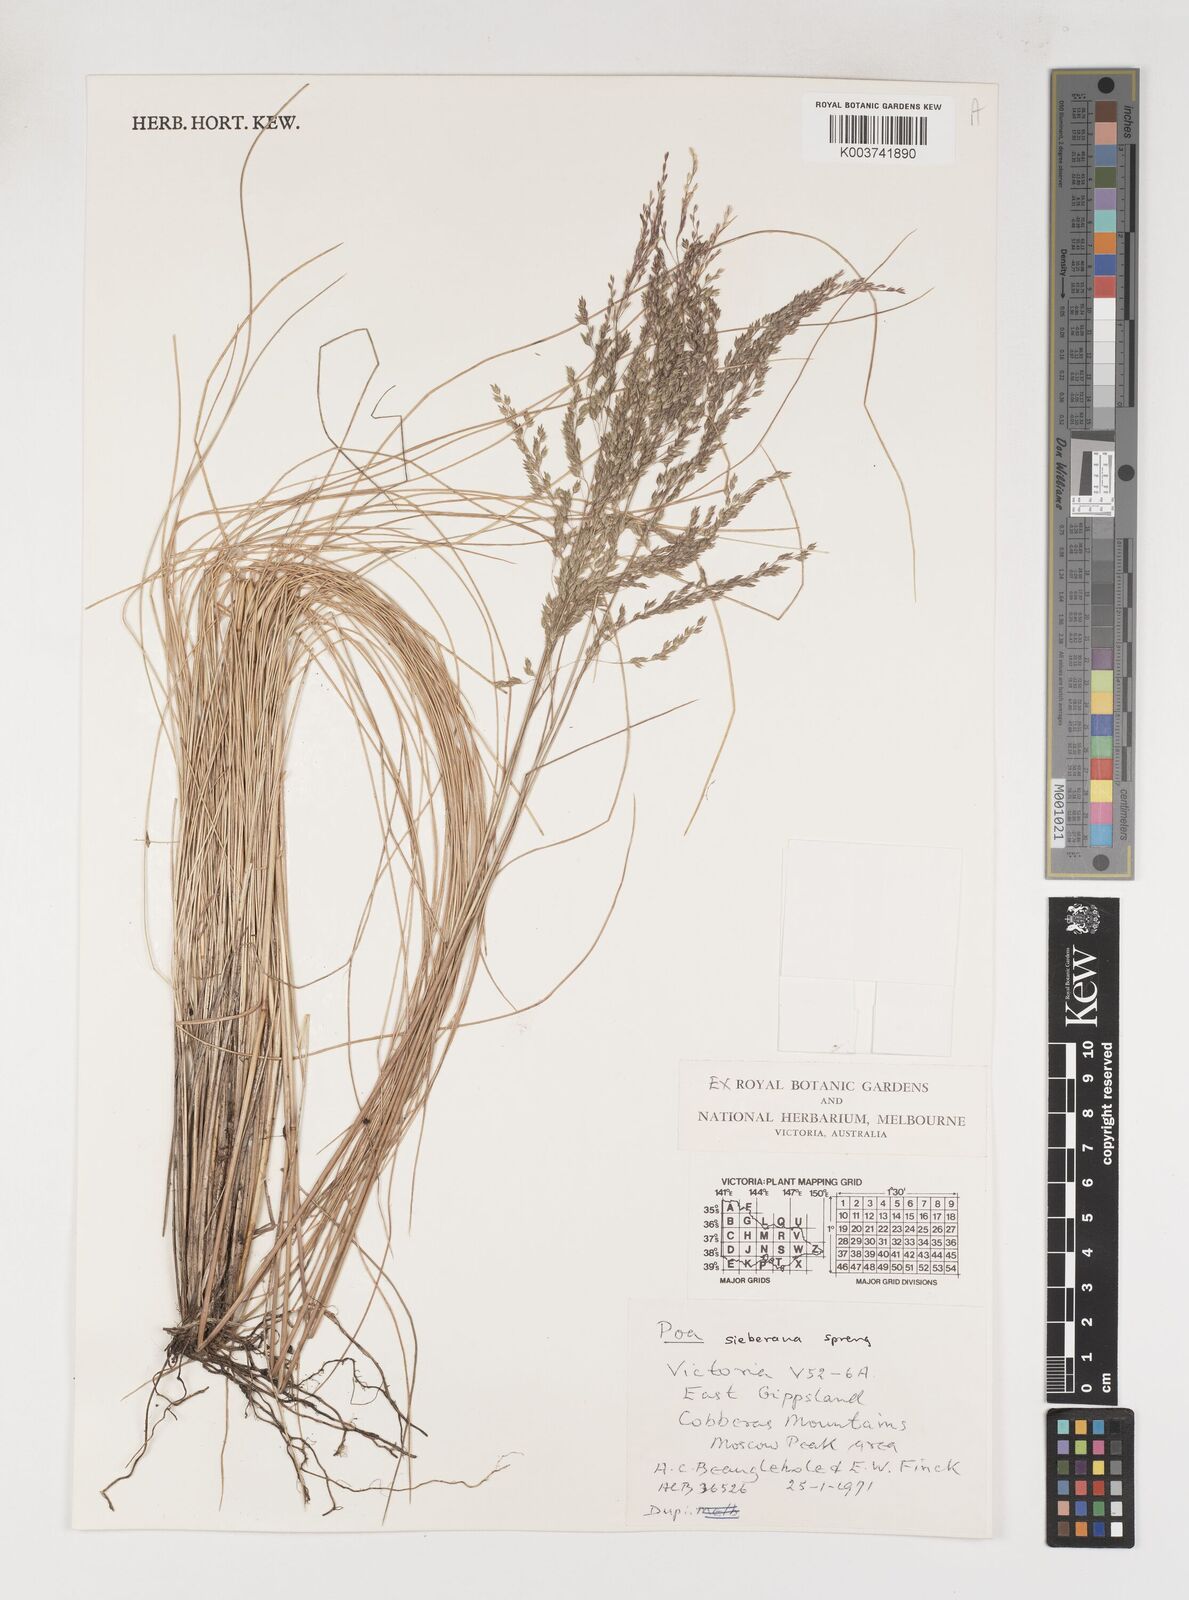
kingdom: Plantae
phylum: Tracheophyta
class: Liliopsida
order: Poales
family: Poaceae
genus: Poa
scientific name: Poa sieberiana
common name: Tussock poa
